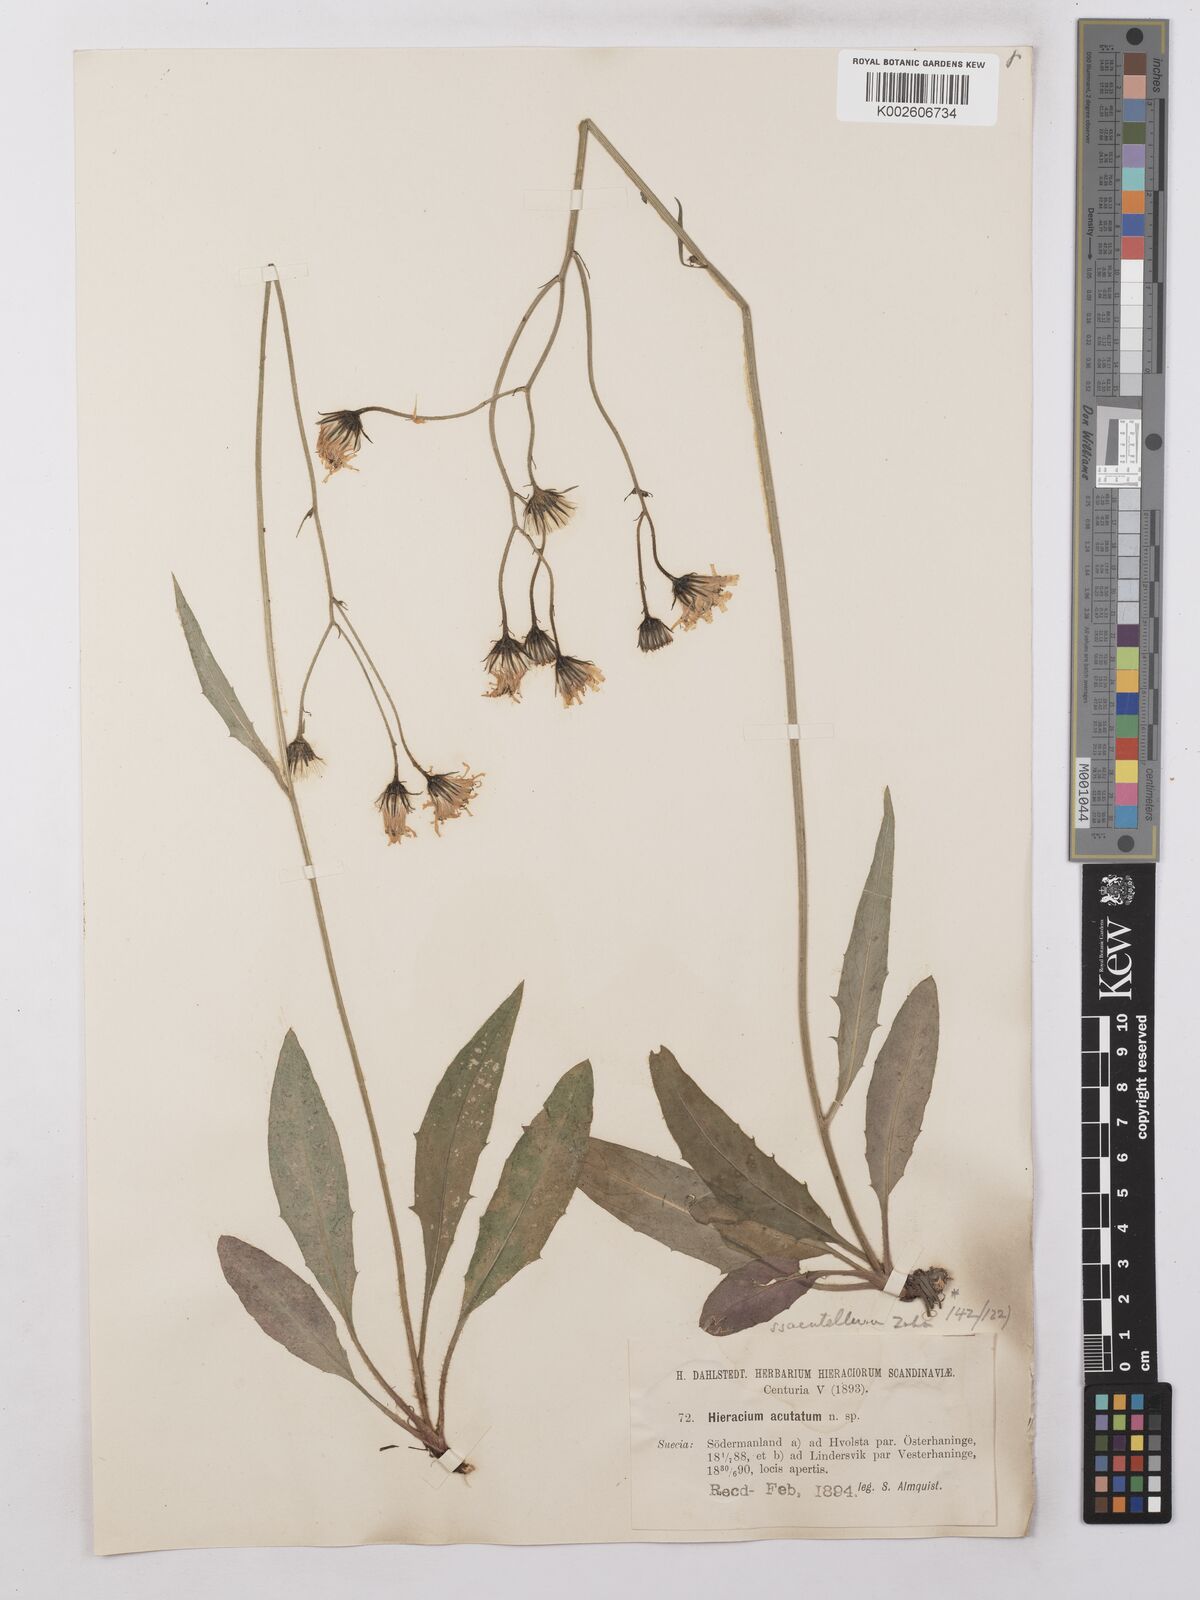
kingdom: Plantae
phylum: Tracheophyta
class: Magnoliopsida
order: Asterales
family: Asteraceae
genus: Hieracium
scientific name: Hieracium lachenalii
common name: Common hawkweed
